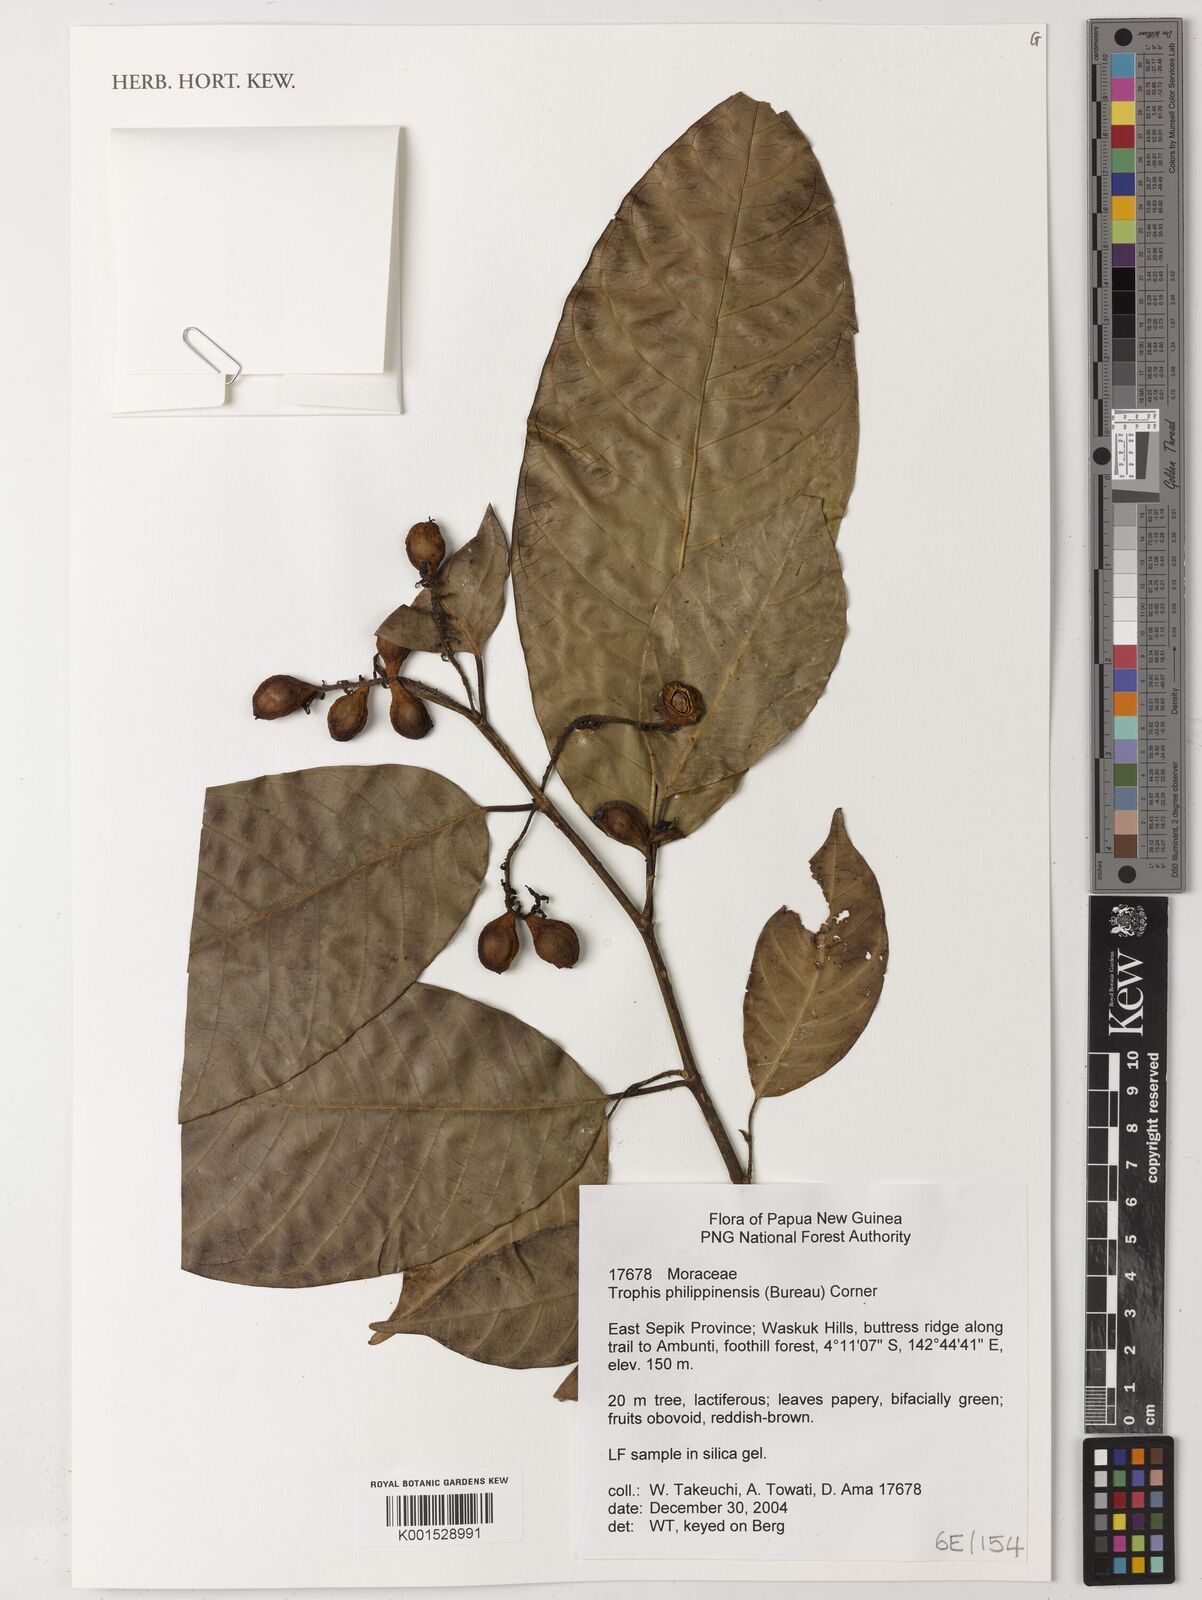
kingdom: Plantae
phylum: Tracheophyta
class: Magnoliopsida
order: Rosales
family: Moraceae
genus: Paratrophis
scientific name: Paratrophis philippinensis
